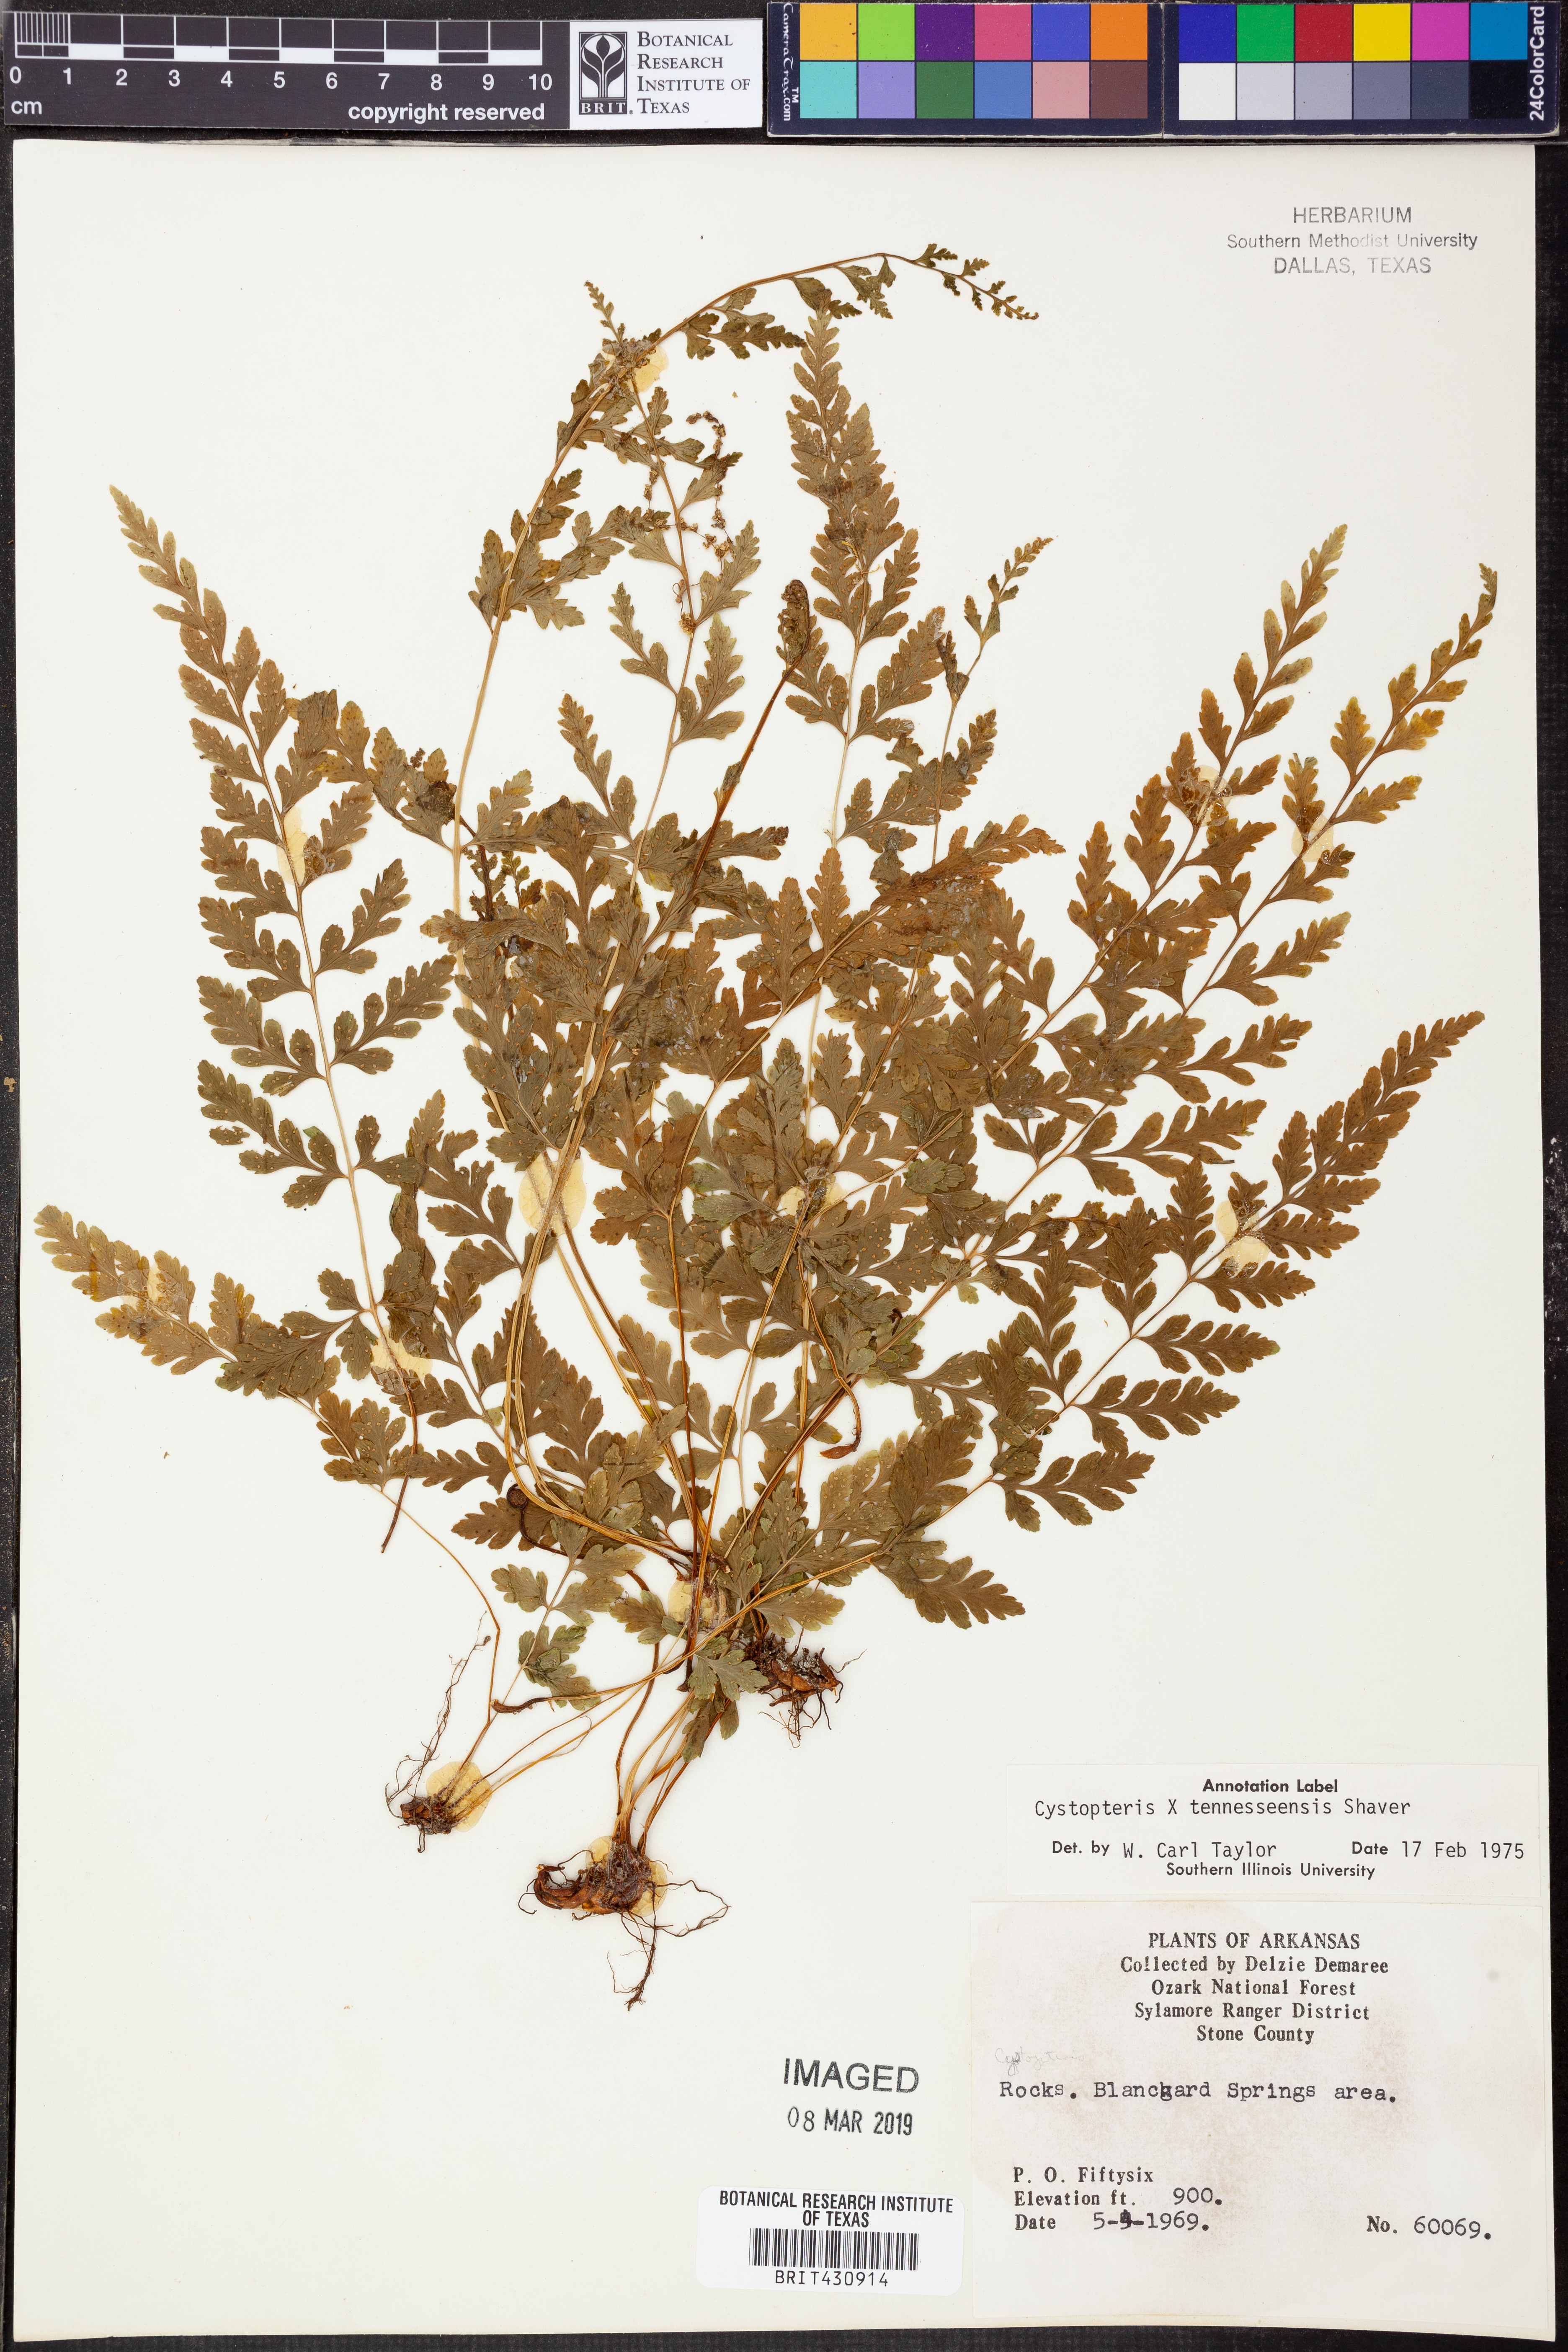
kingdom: Plantae
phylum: Tracheophyta
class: Polypodiopsida
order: Polypodiales
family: Cystopteridaceae
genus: Cystopteris
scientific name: Cystopteris tennesseensis
